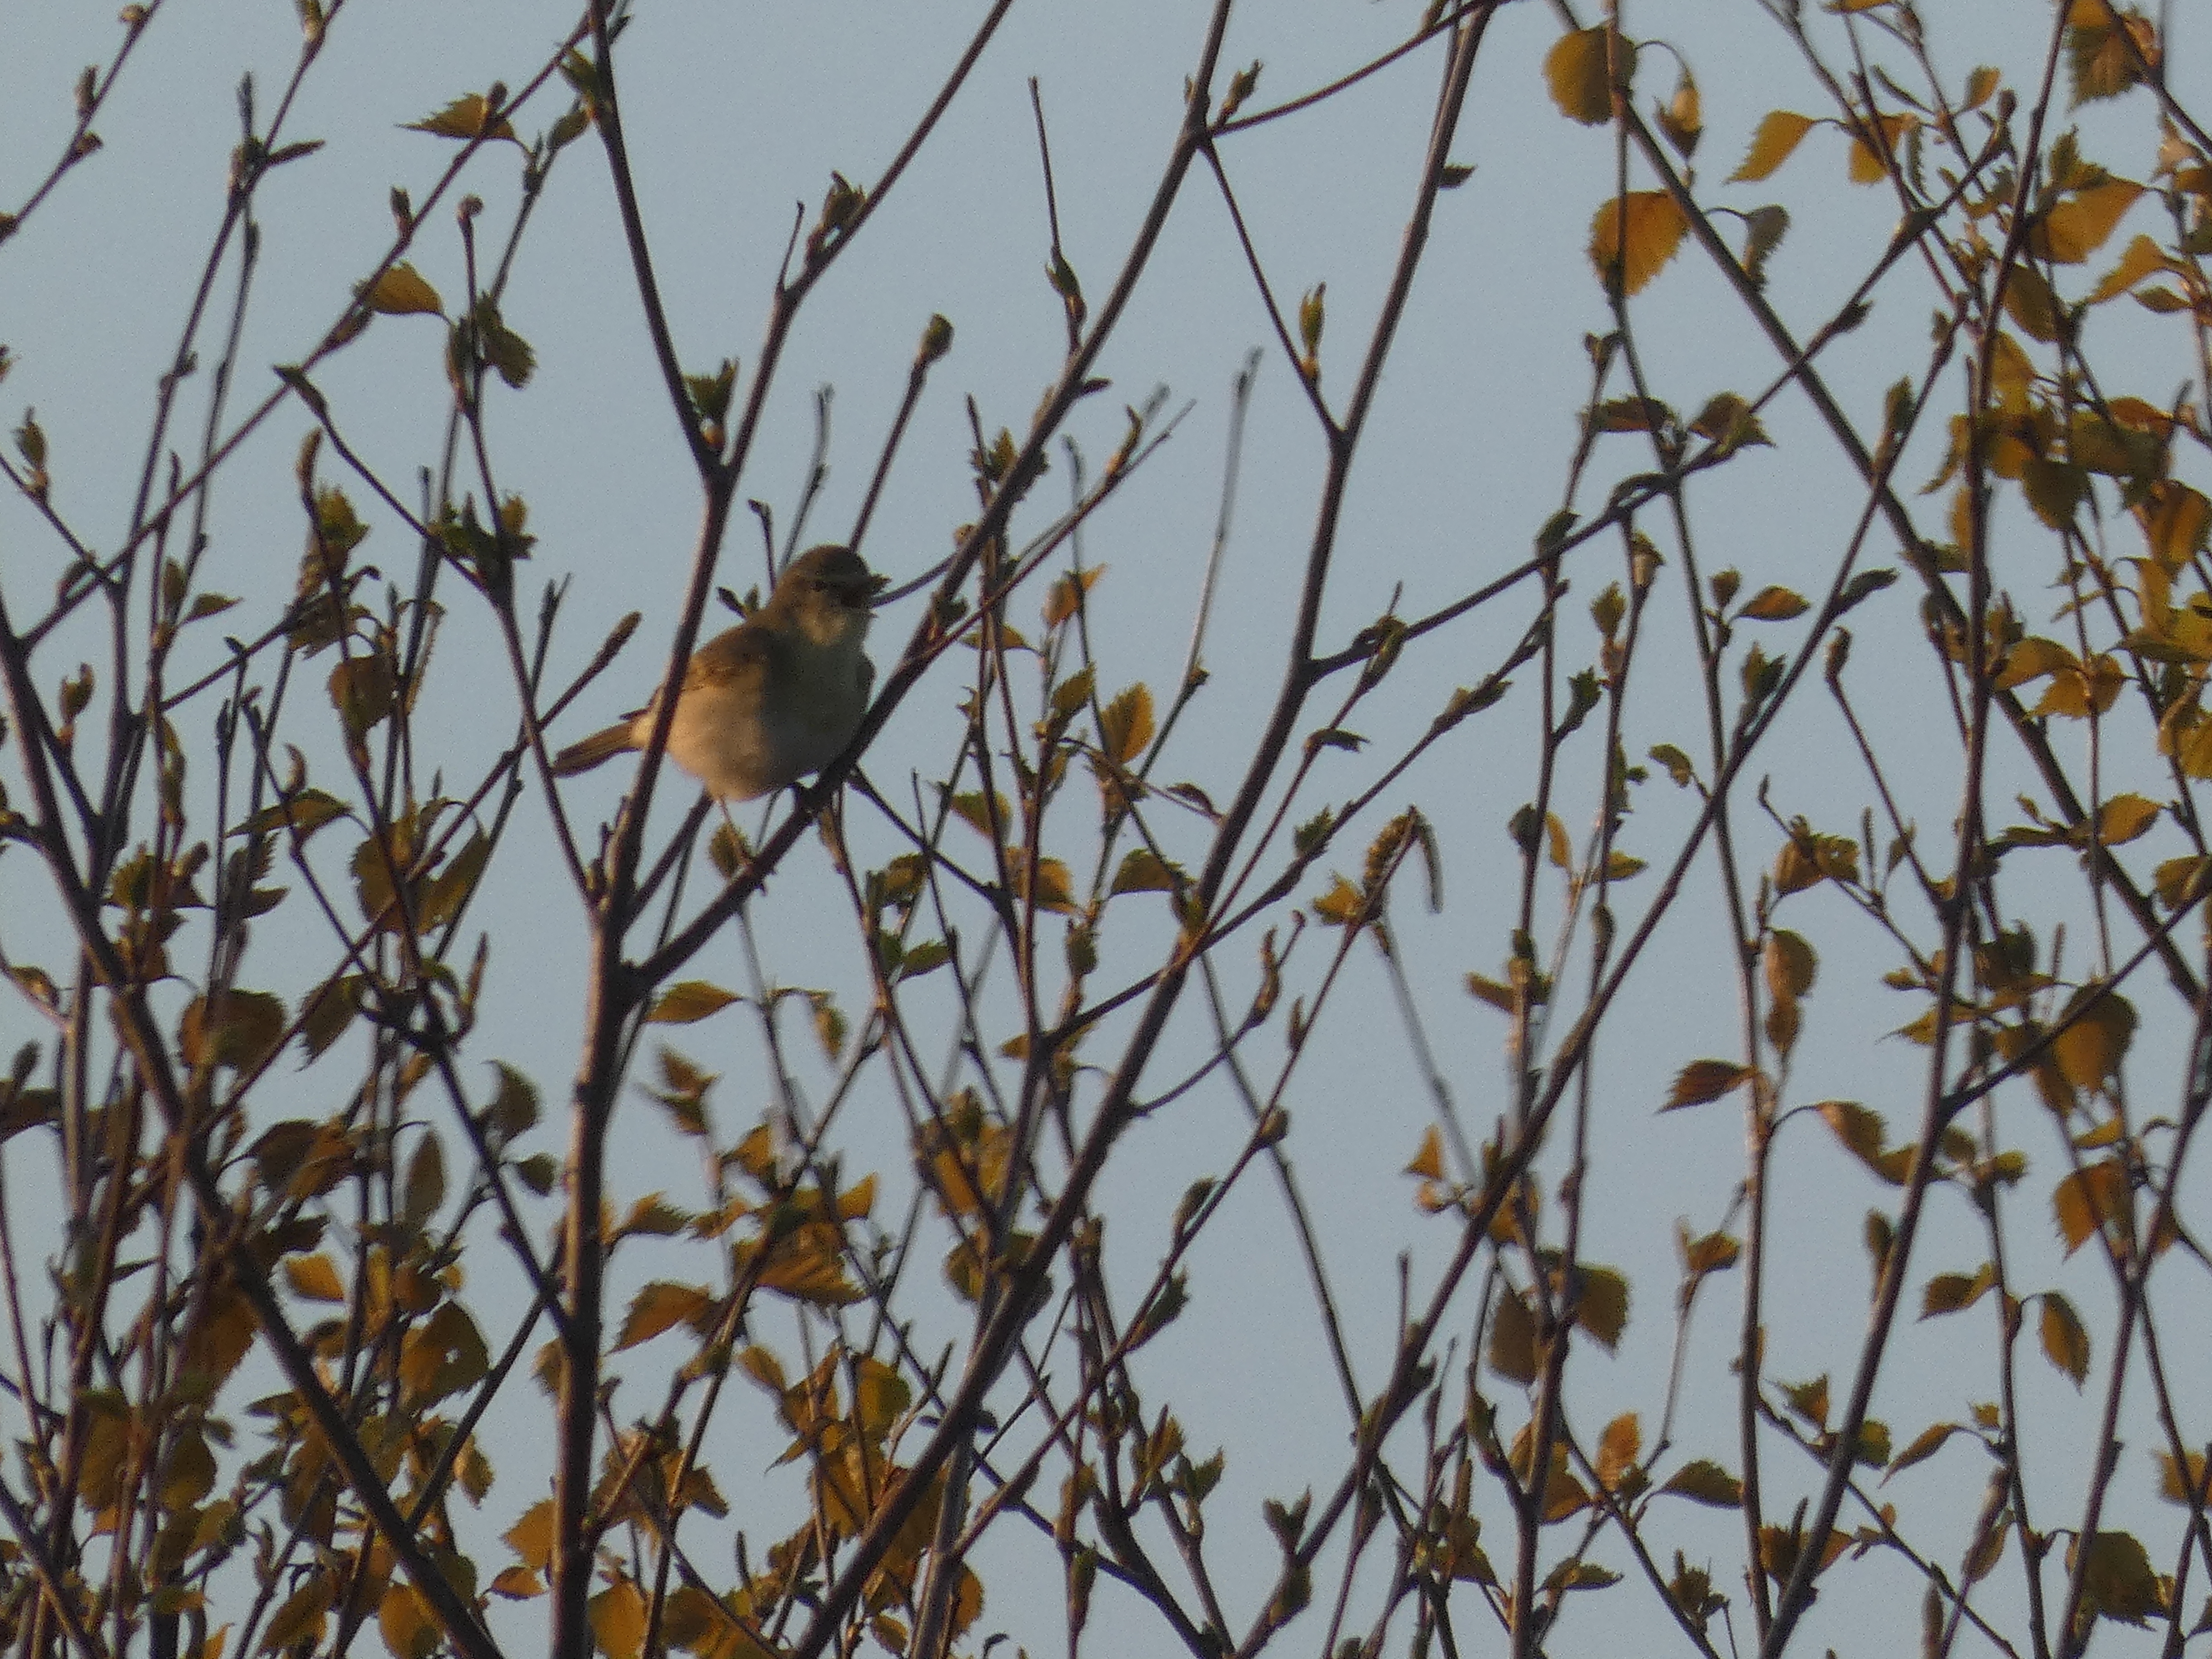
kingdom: Animalia
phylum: Chordata
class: Aves
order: Passeriformes
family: Phylloscopidae
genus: Phylloscopus
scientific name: Phylloscopus collybita
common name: Gransanger
